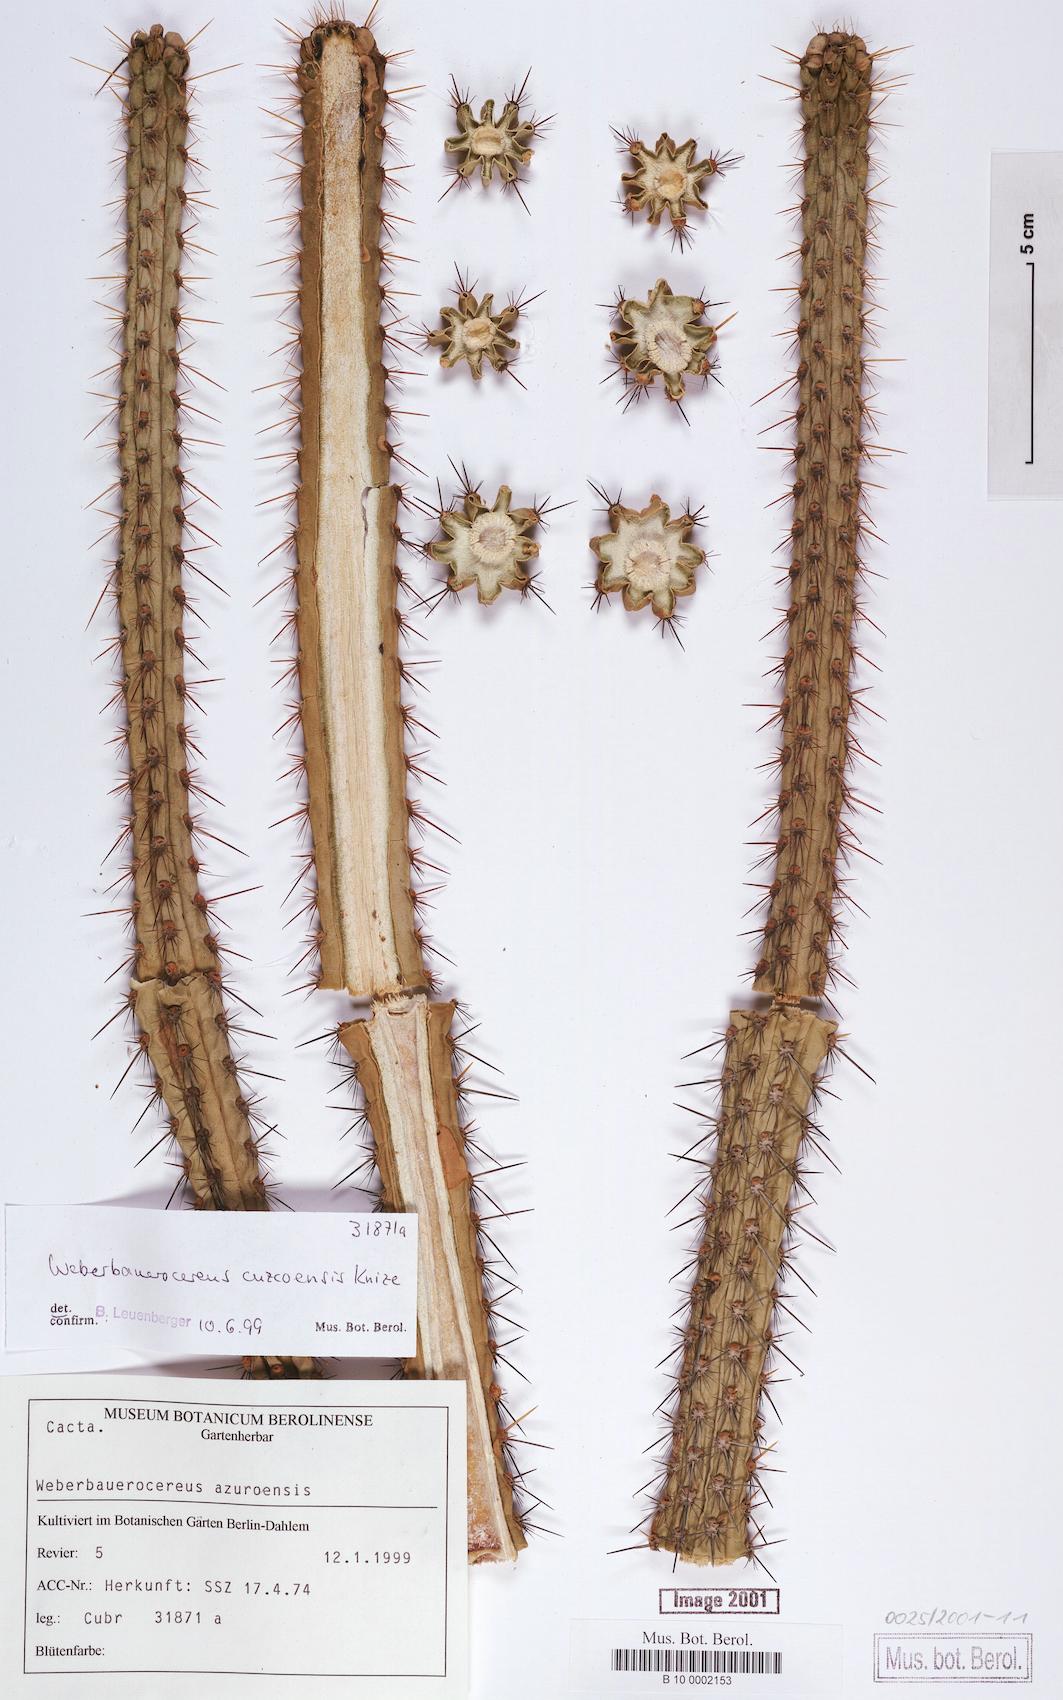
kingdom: Plantae
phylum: Tracheophyta
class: Magnoliopsida
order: Caryophyllales
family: Cactaceae
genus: Weberbauerocereus
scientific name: Weberbauerocereus cuzcoensis
